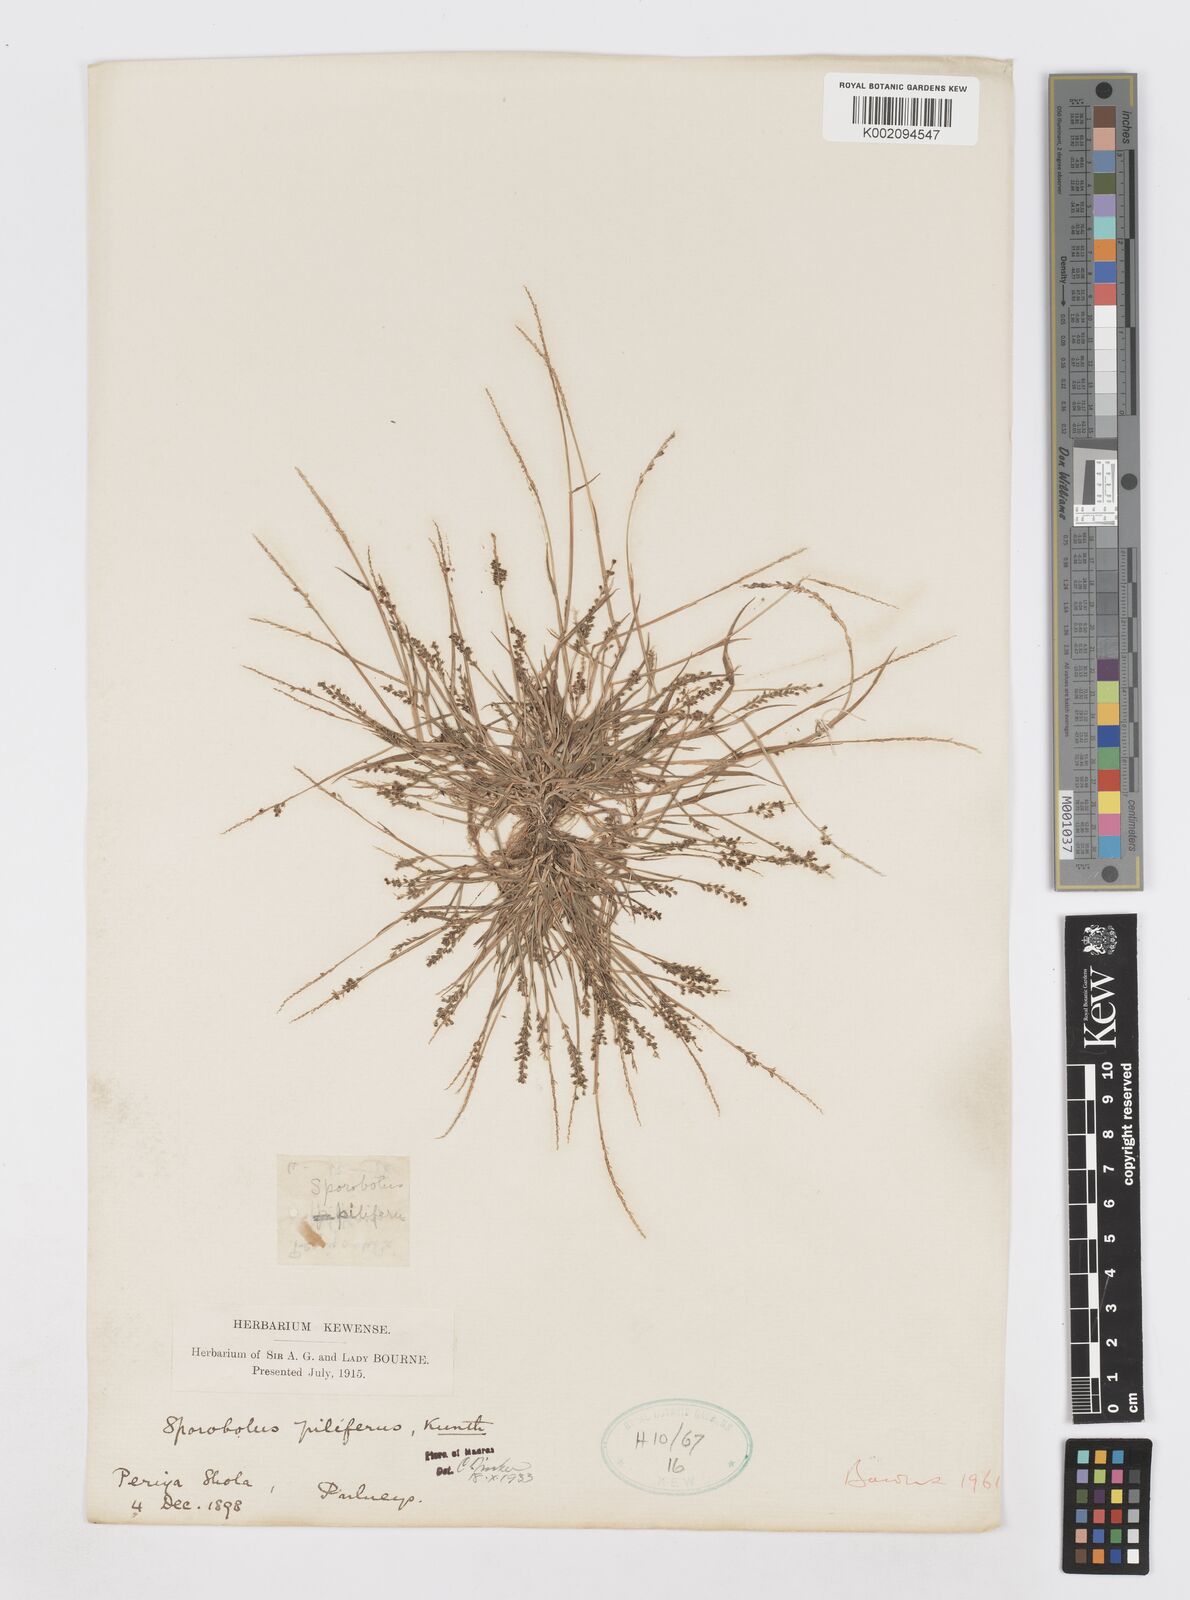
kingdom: Plantae
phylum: Tracheophyta
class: Liliopsida
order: Poales
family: Poaceae
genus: Sporobolus
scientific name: Sporobolus pilifer
